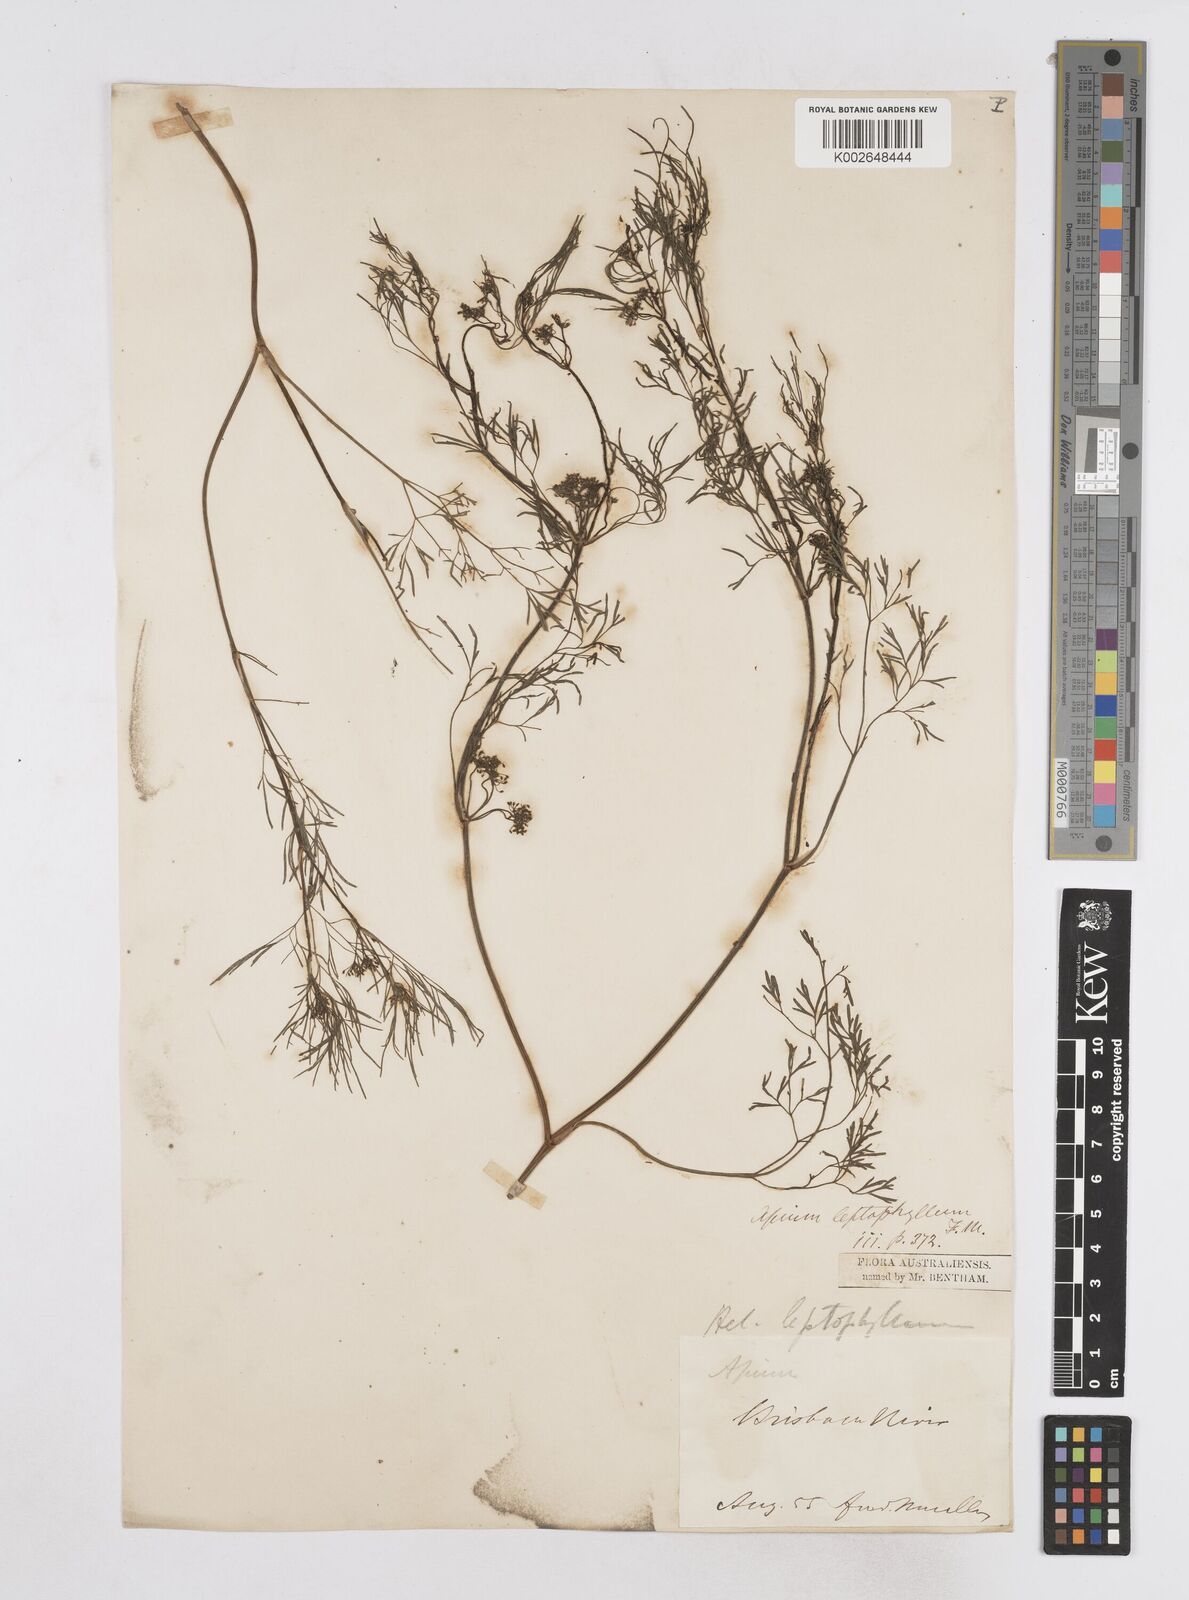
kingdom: Plantae
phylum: Tracheophyta
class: Magnoliopsida
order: Apiales
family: Apiaceae
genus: Cyclospermum
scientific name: Cyclospermum leptophyllum
